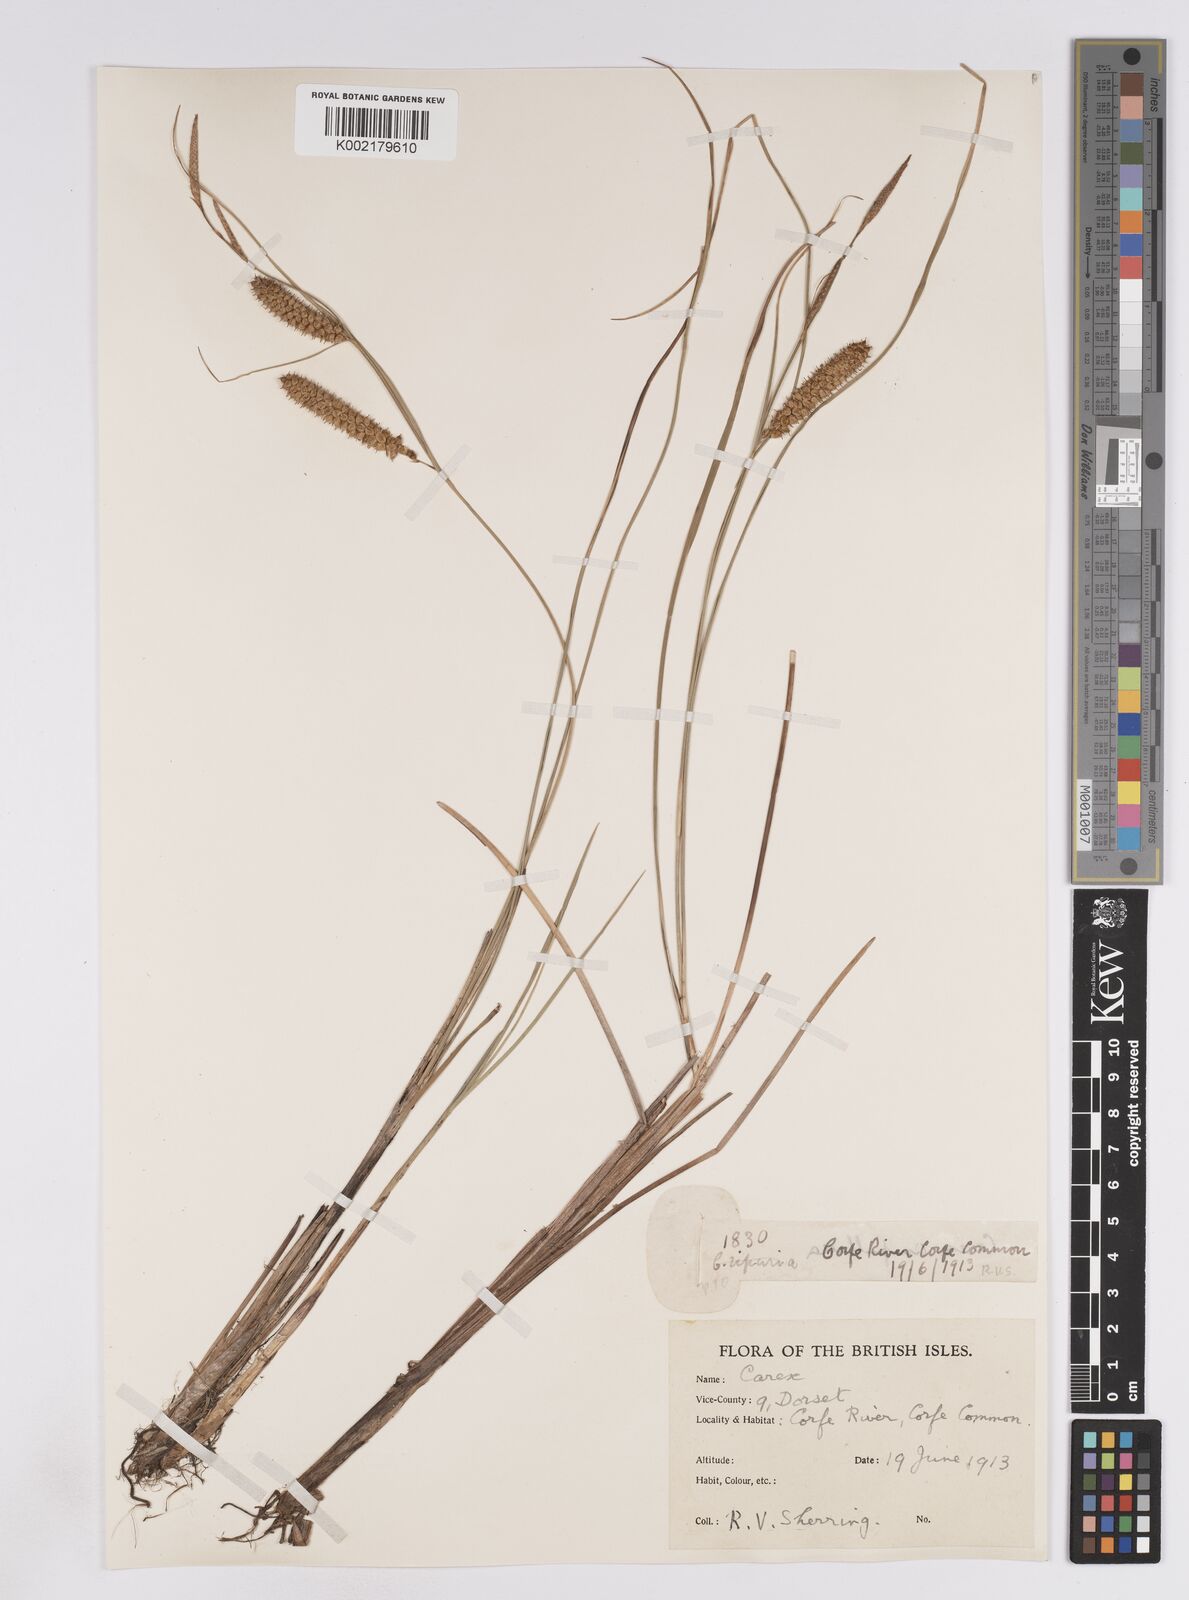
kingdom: Plantae
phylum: Tracheophyta
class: Liliopsida
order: Poales
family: Cyperaceae
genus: Carex
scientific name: Carex rostrata
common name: Bottle sedge
